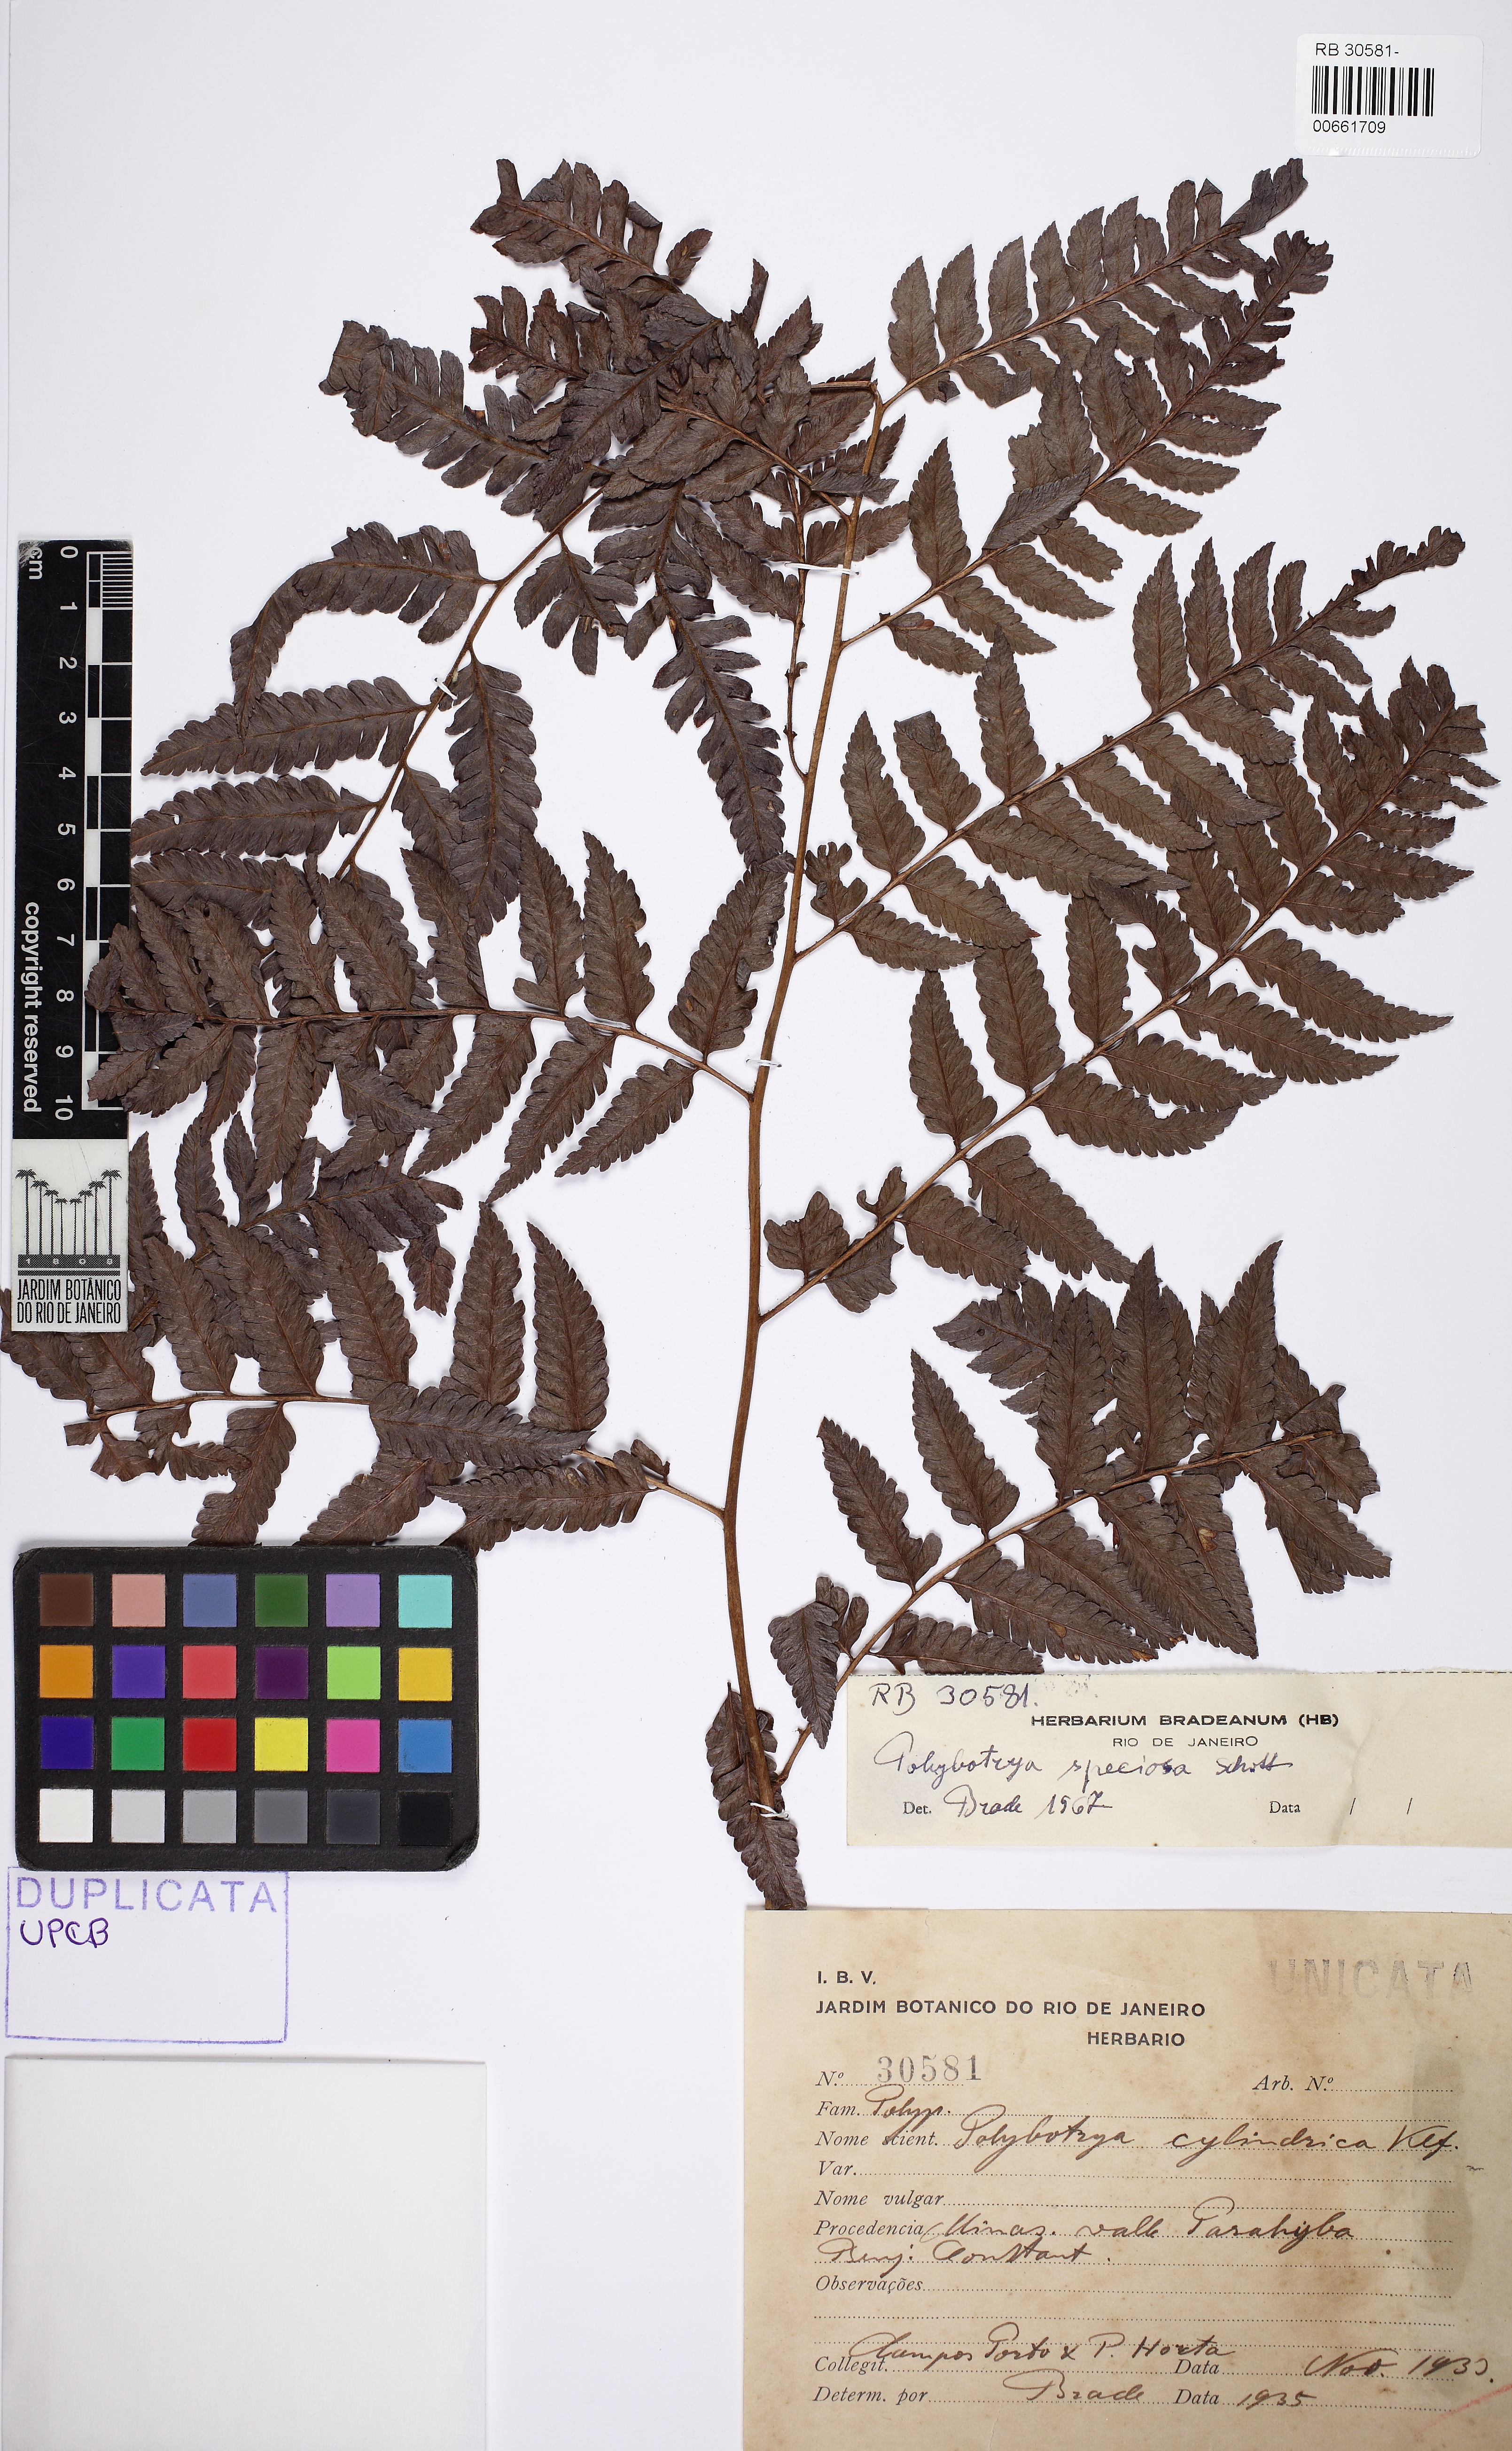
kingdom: Plantae
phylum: Tracheophyta
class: Polypodiopsida
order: Polypodiales
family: Dryopteridaceae
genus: Polybotrya
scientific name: Polybotrya speciosa
